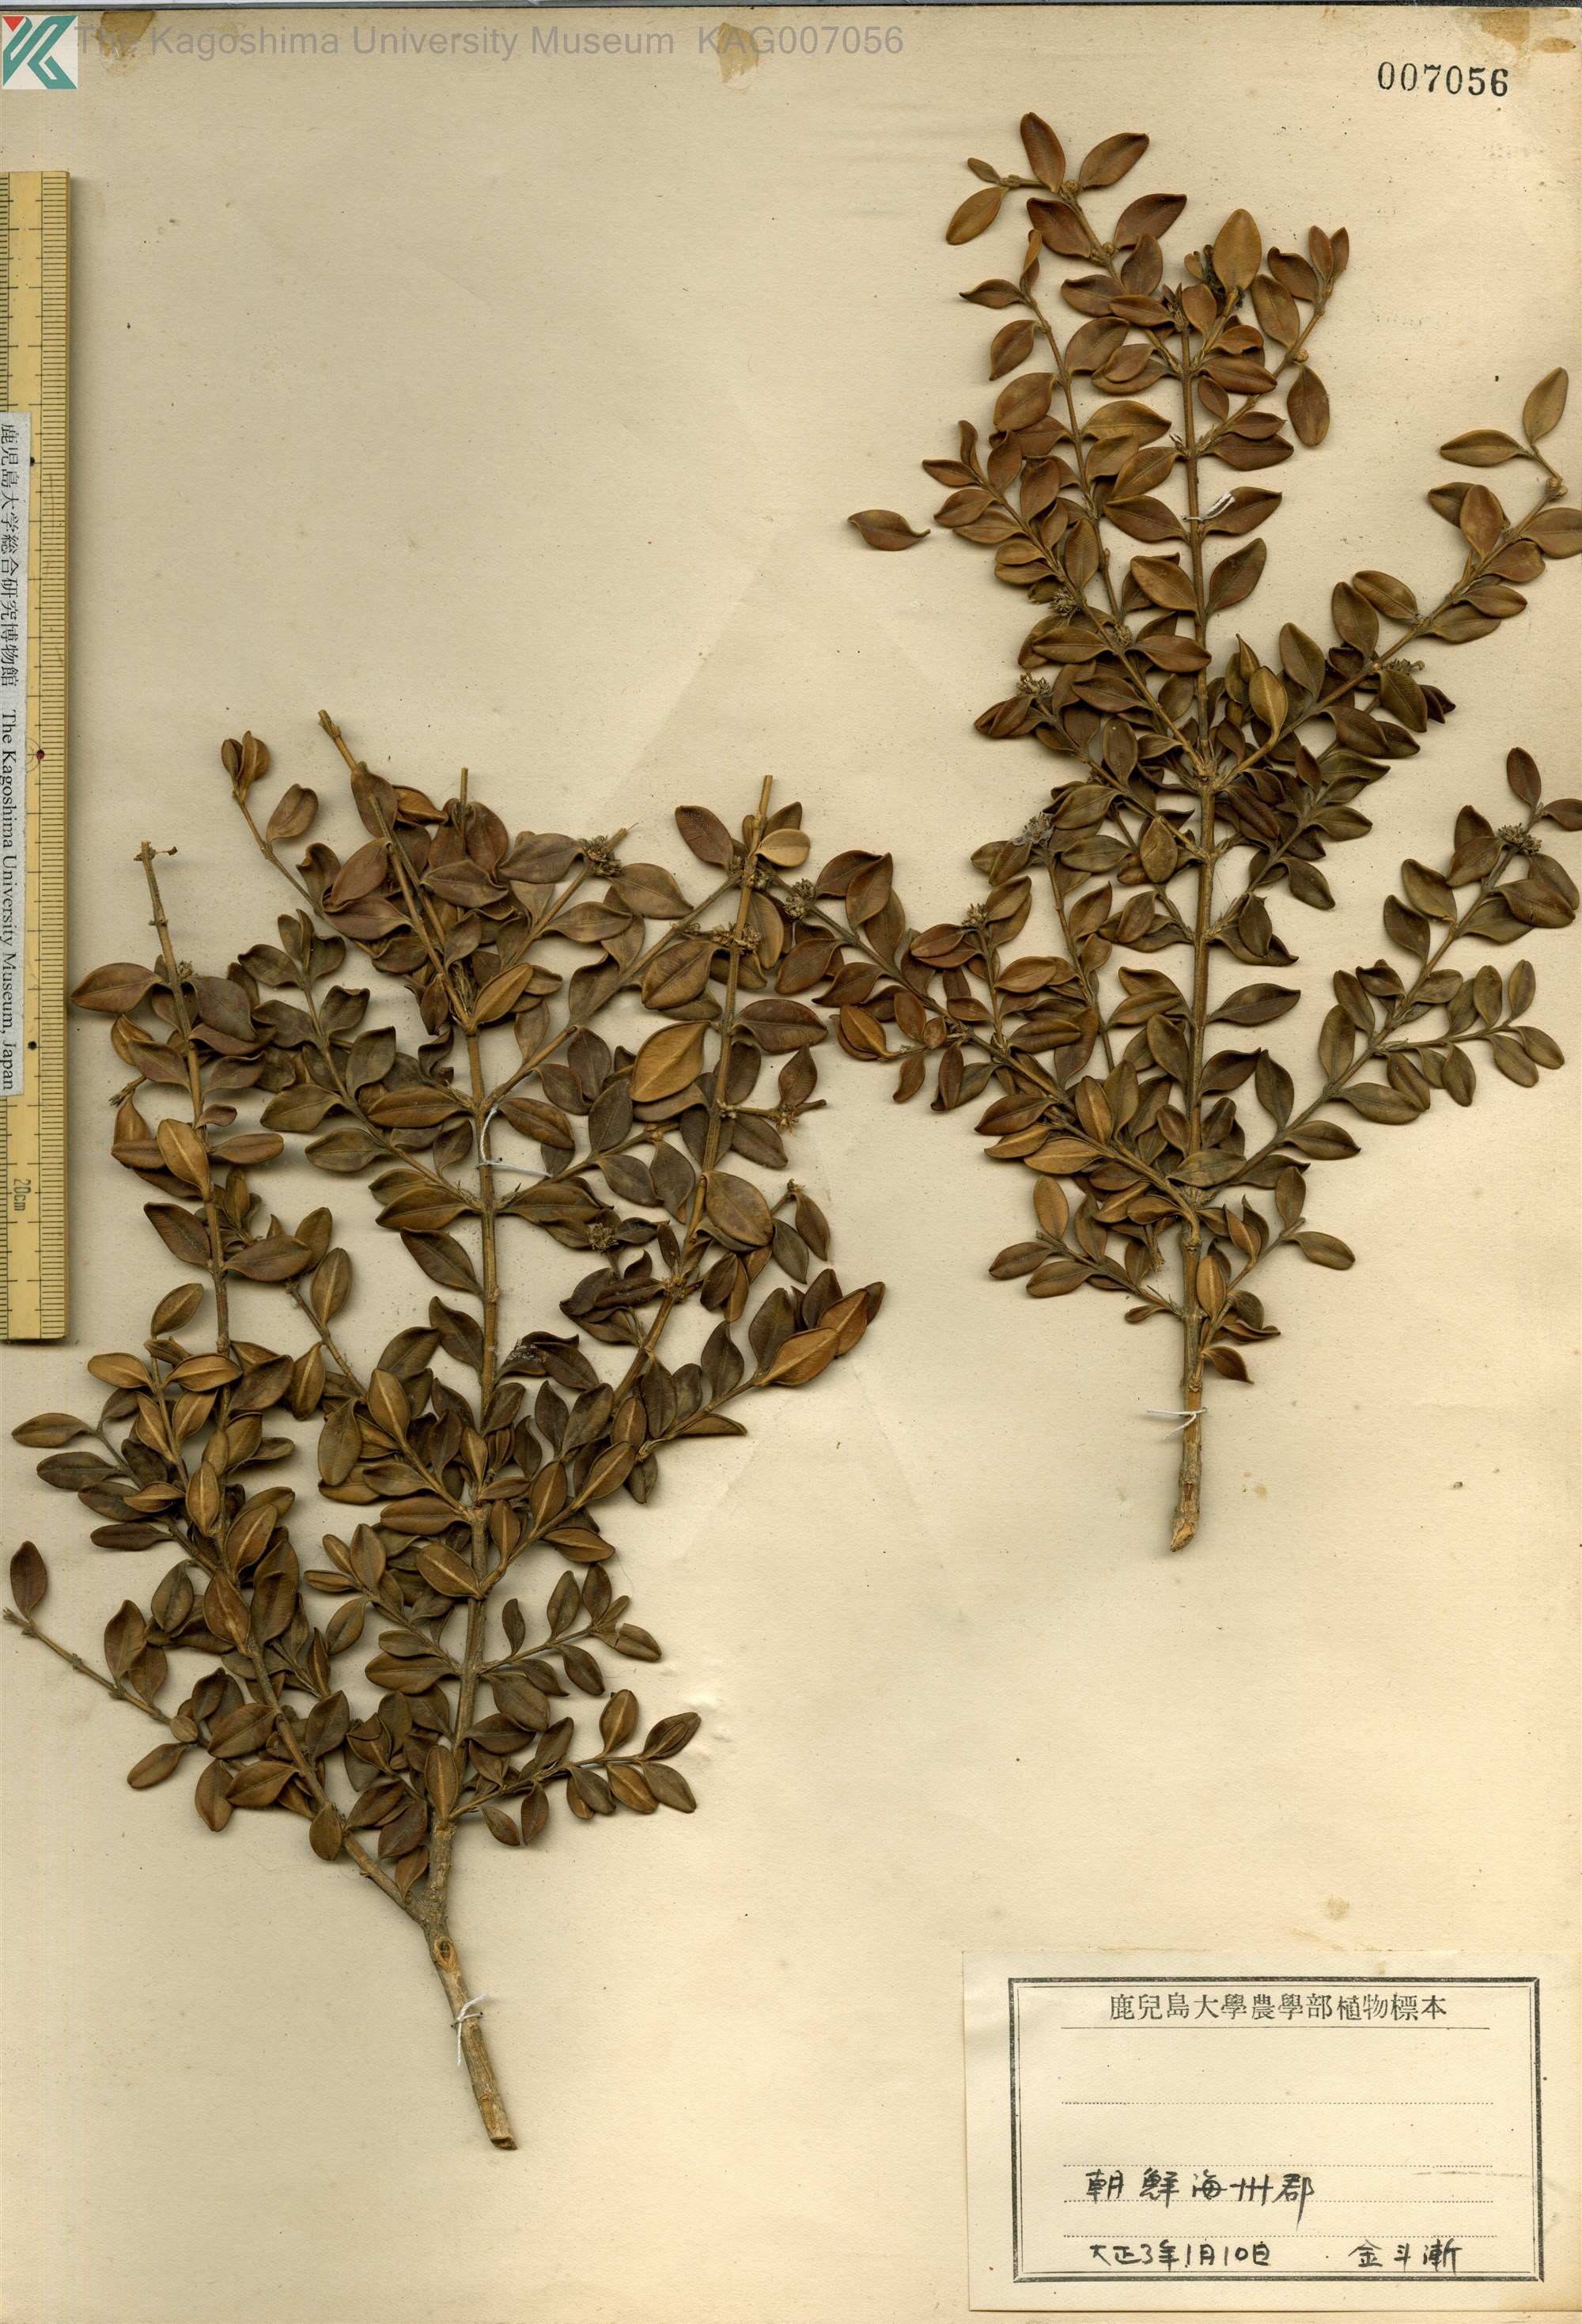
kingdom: Plantae
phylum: Tracheophyta
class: Magnoliopsida
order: Buxales
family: Buxaceae
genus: Buxus
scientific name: Buxus sinica
